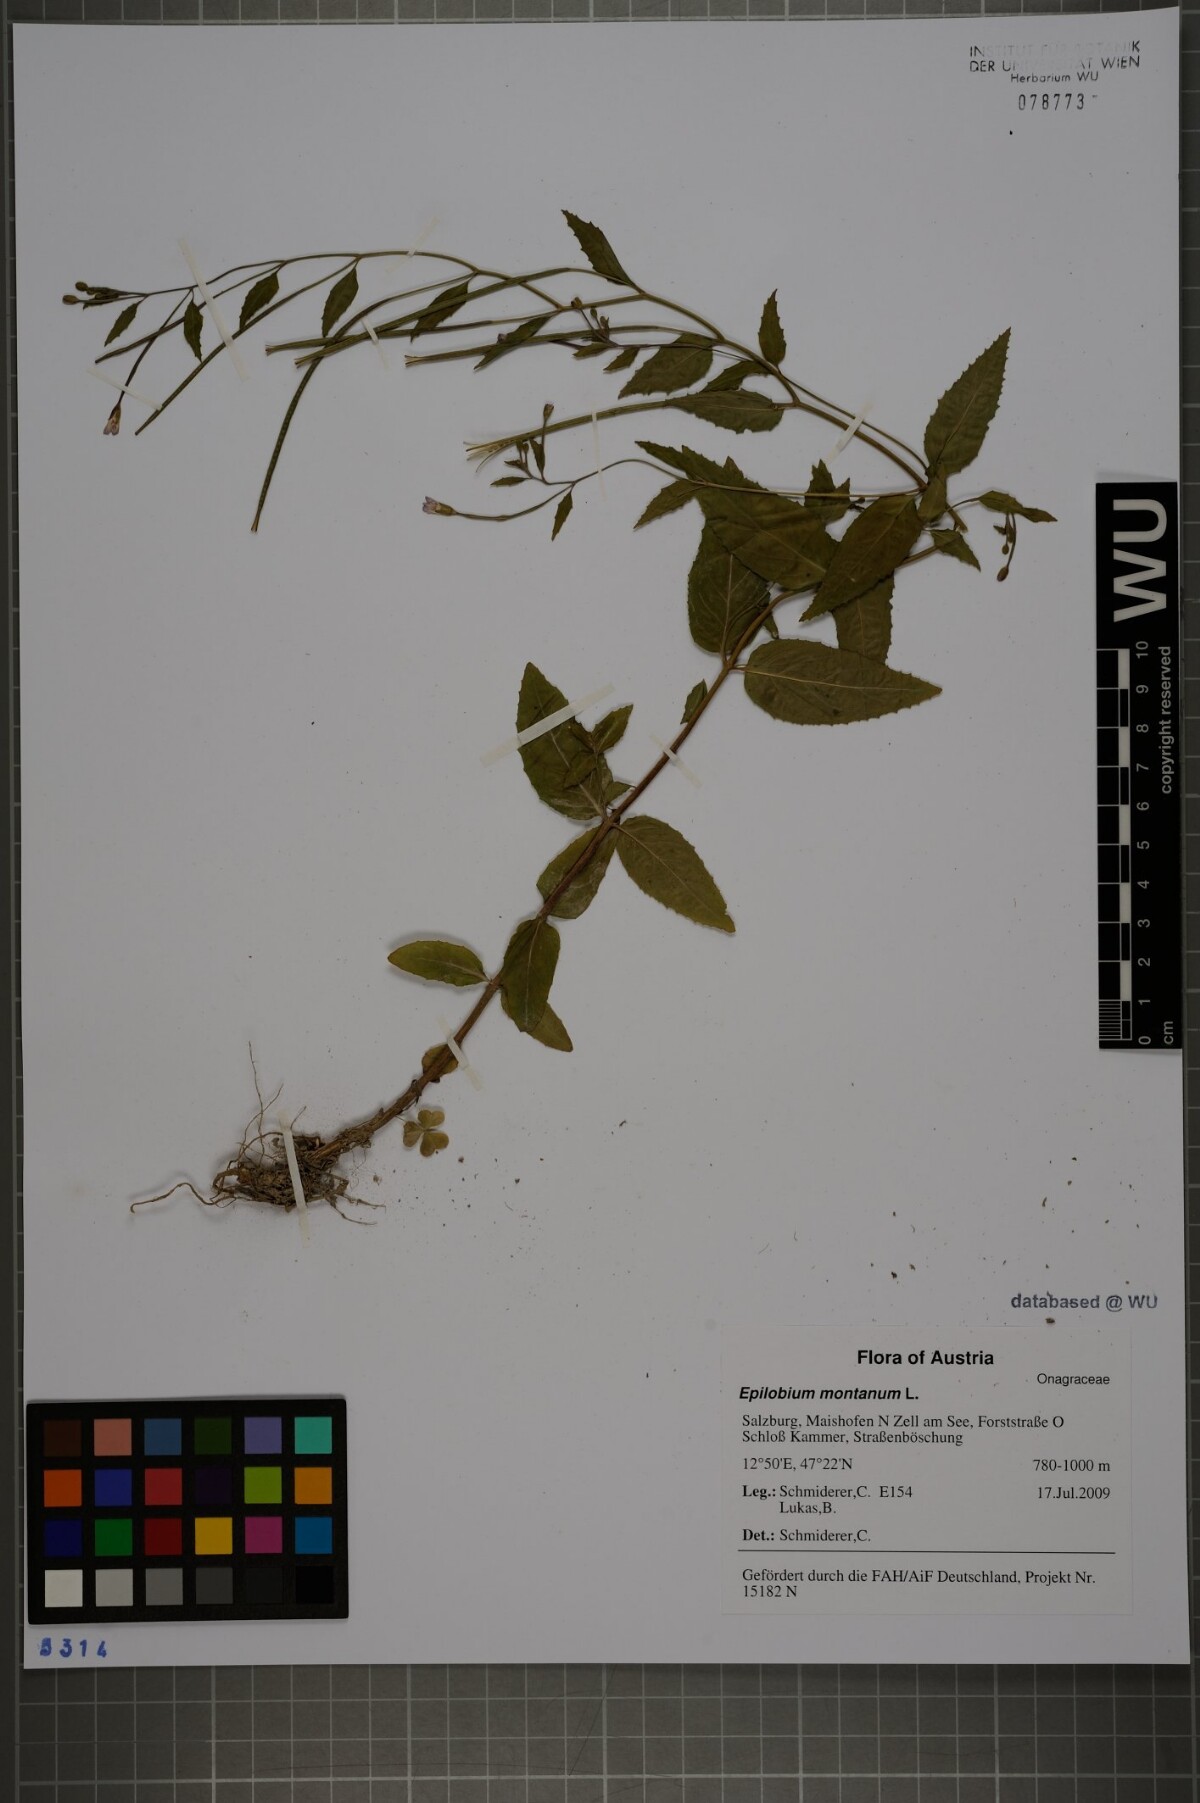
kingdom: Plantae
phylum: Tracheophyta
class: Magnoliopsida
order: Myrtales
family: Onagraceae
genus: Epilobium
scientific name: Epilobium montanum
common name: Broad-leaved willowherb
